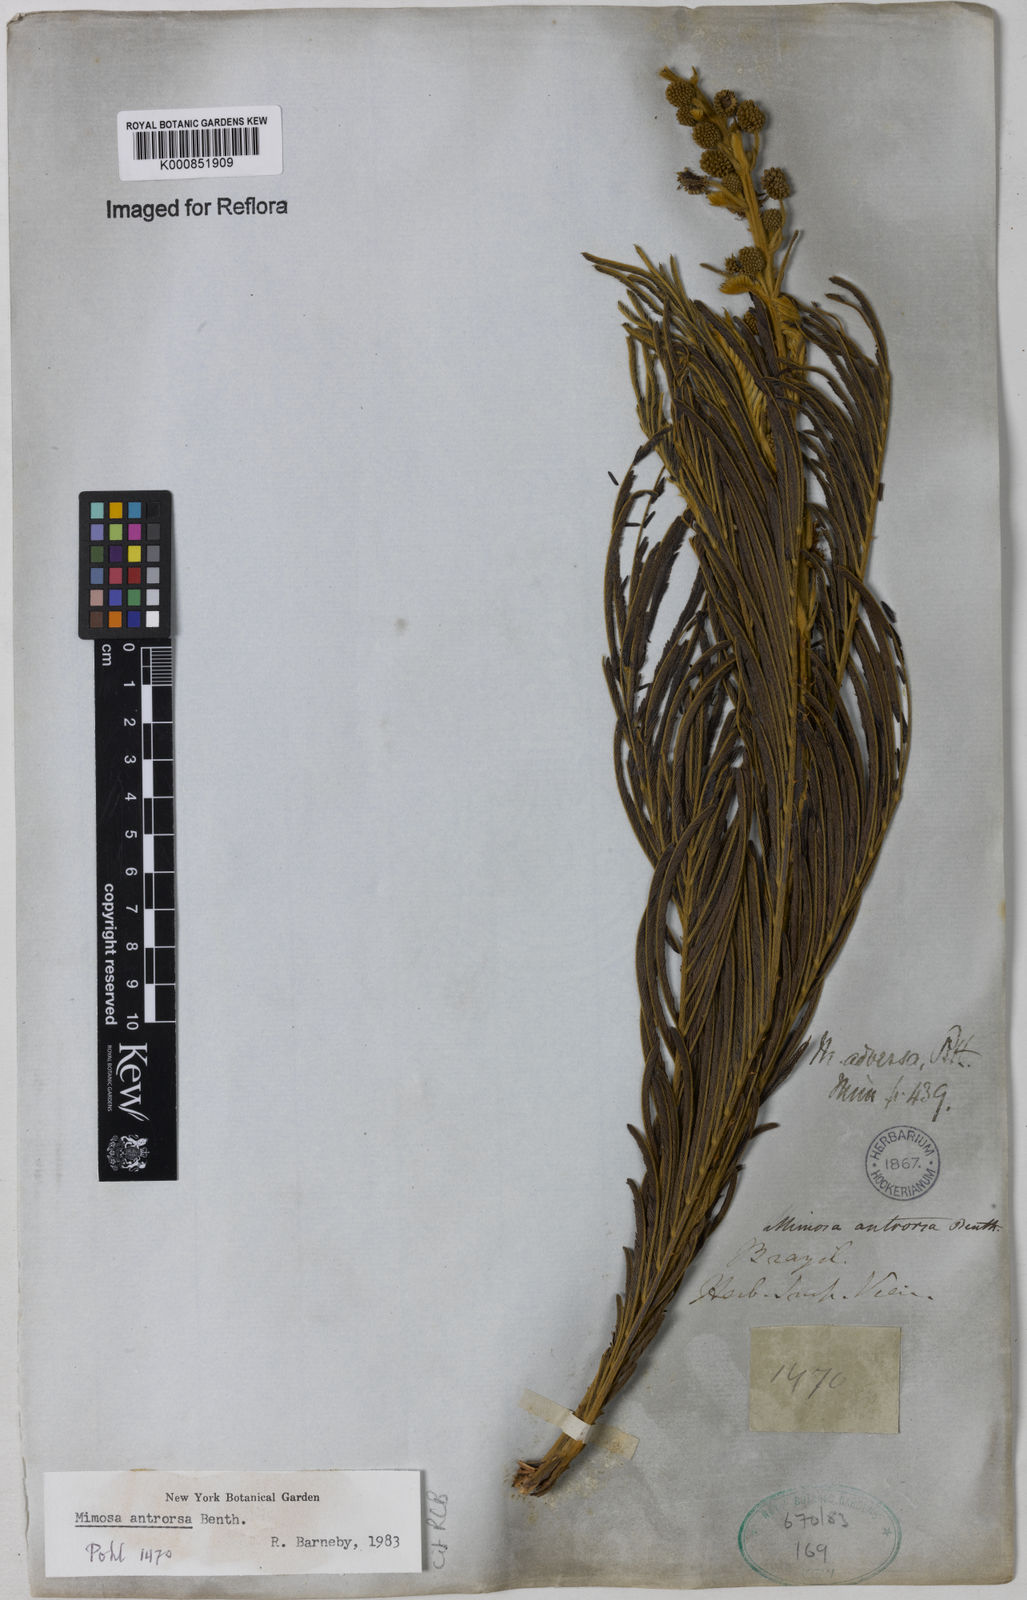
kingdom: Plantae
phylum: Tracheophyta
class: Magnoliopsida
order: Fabales
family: Fabaceae
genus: Mimosa
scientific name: Mimosa antrorsa
